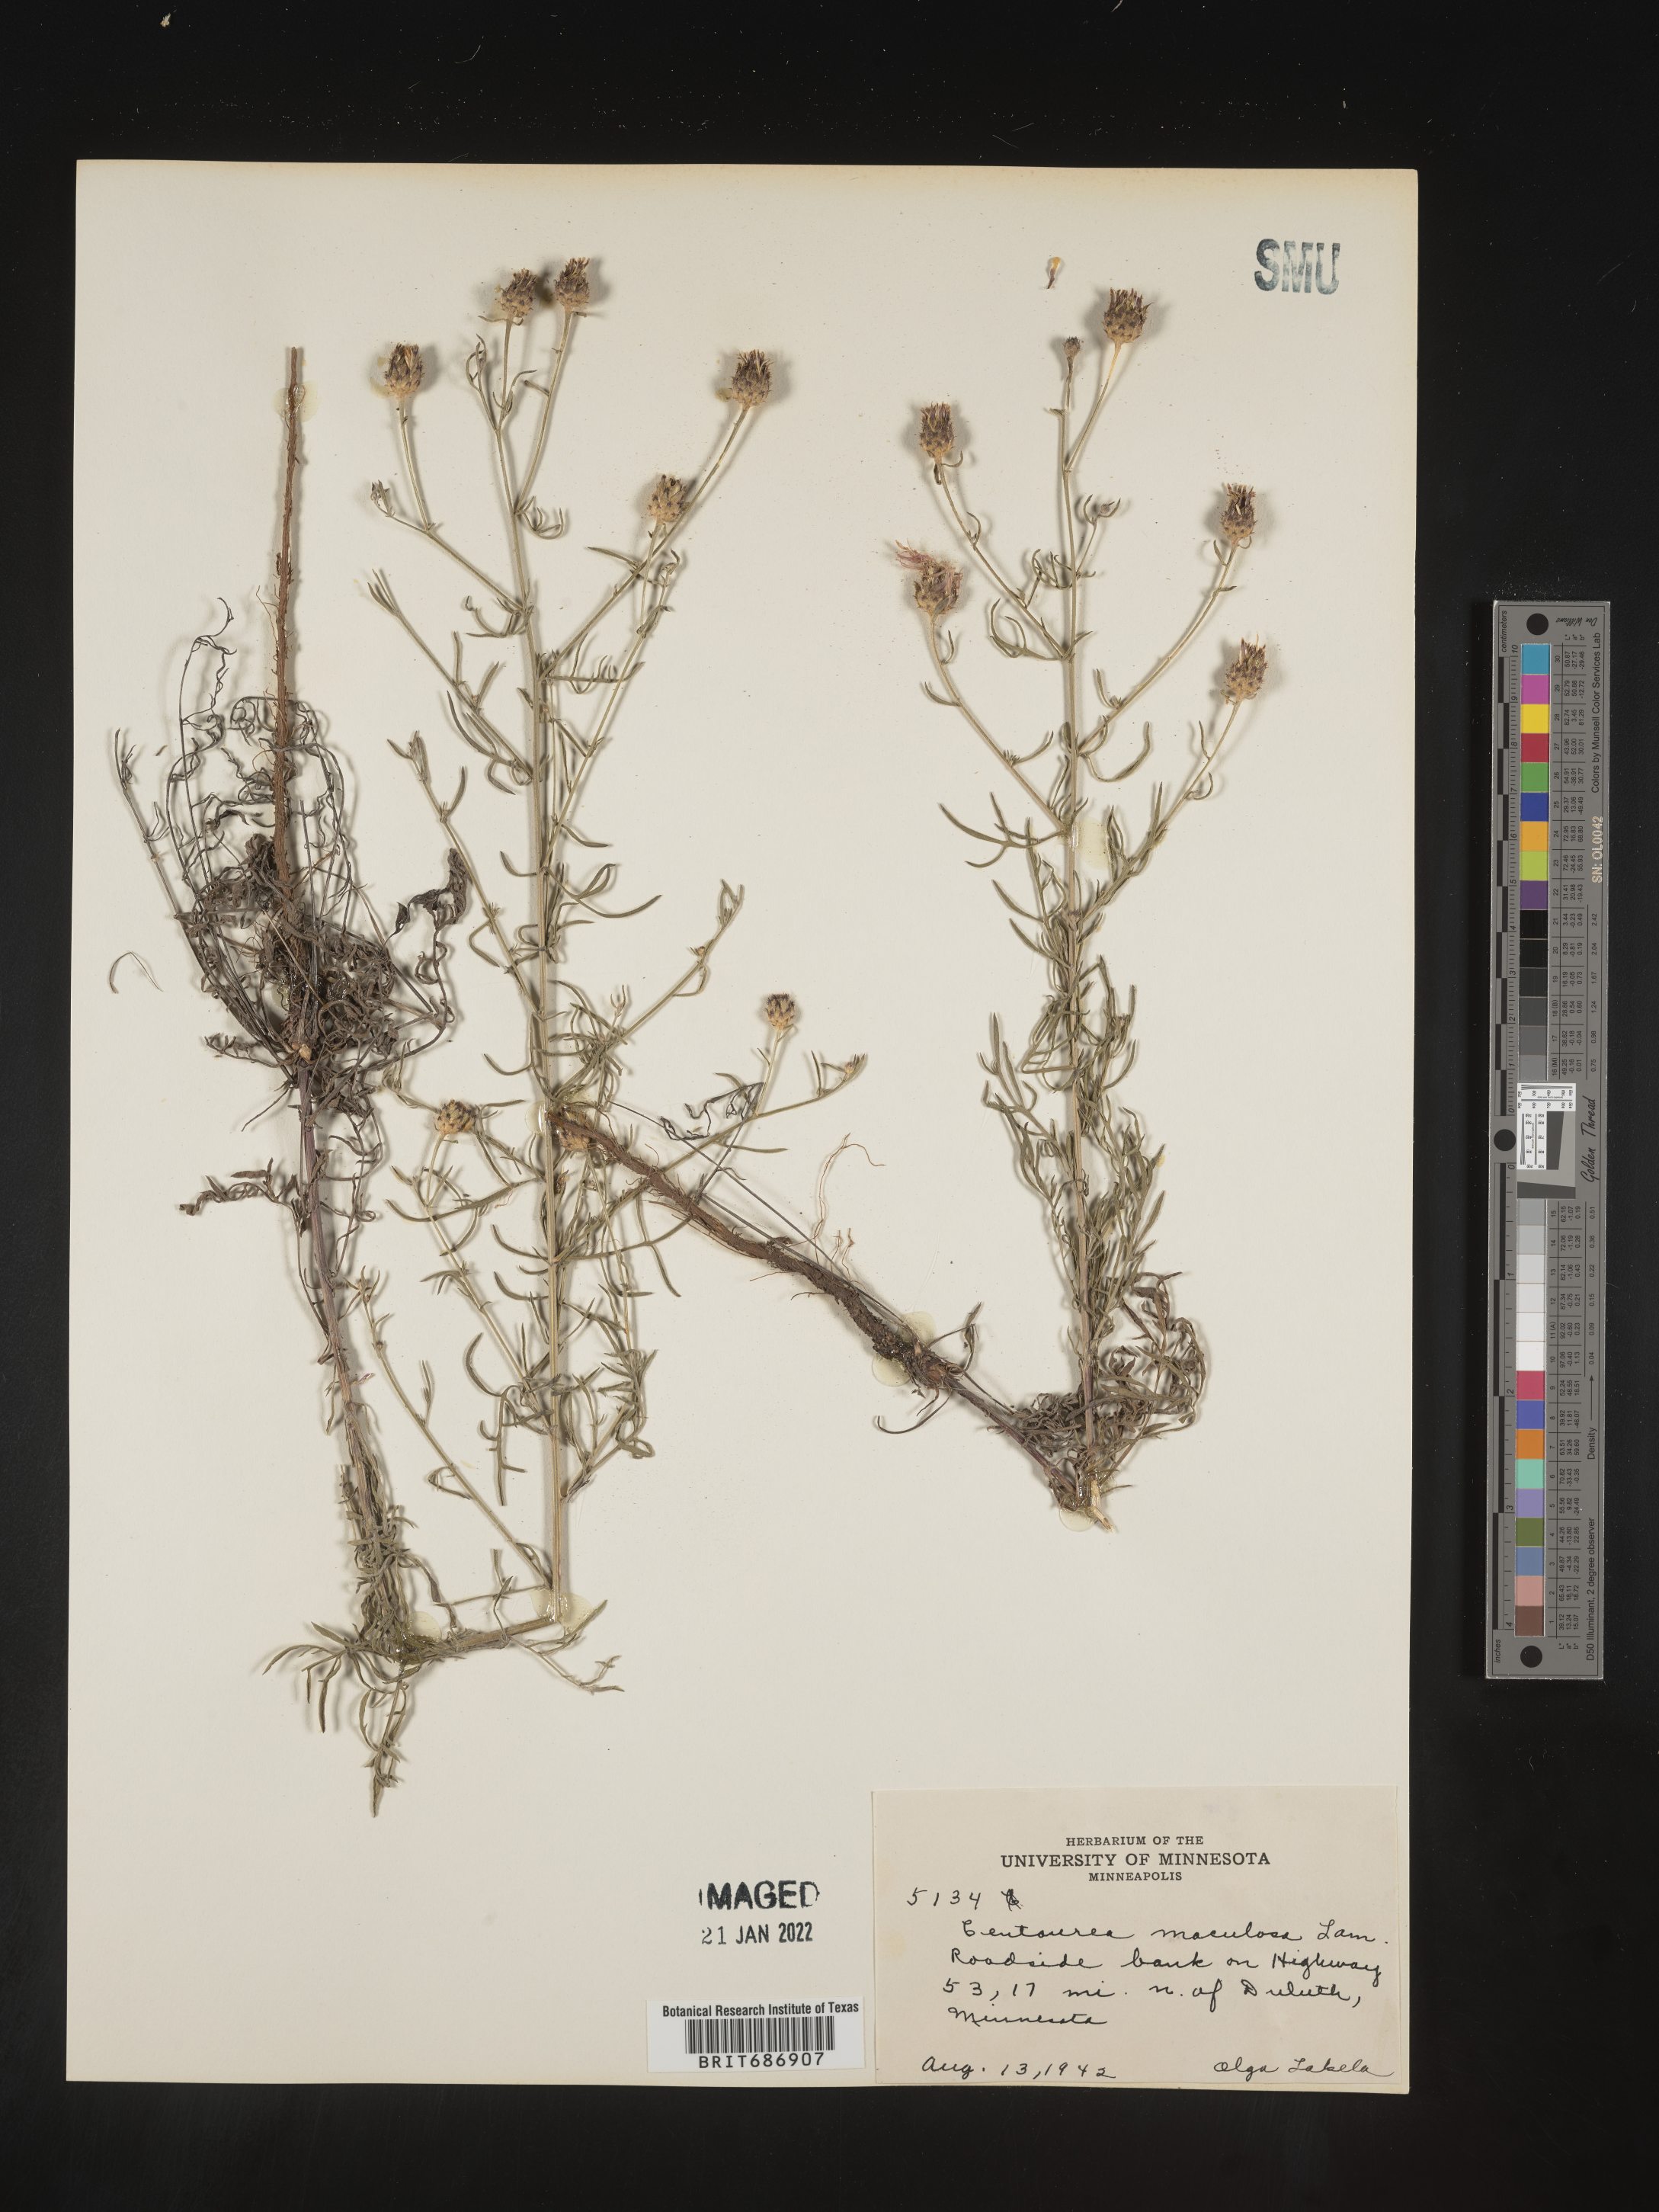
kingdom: Plantae
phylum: Tracheophyta
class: Magnoliopsida
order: Asterales
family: Asteraceae
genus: Centaurea
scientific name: Centaurea stoebe
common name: Spotted knapweed
